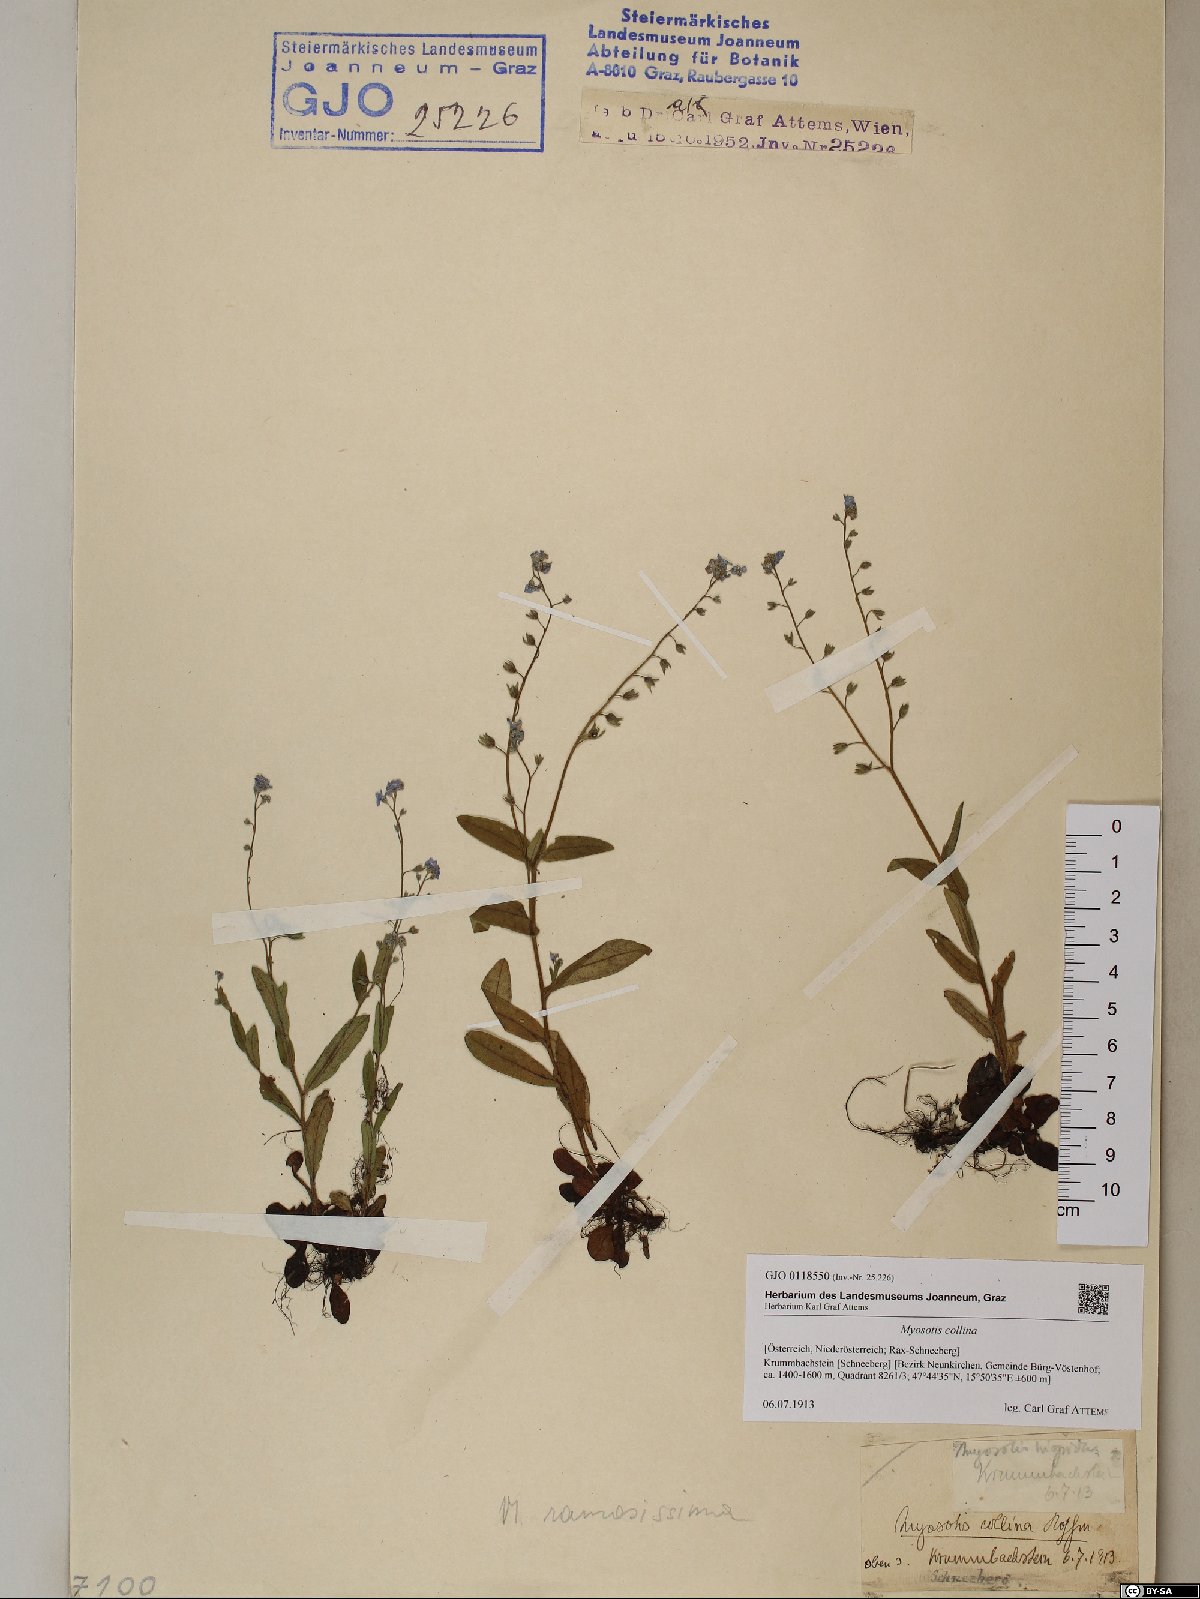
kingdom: Plantae
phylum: Tracheophyta
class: Magnoliopsida
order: Boraginales
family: Boraginaceae
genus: Myosotis
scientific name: Myosotis discolor
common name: Changing forget-me-not
